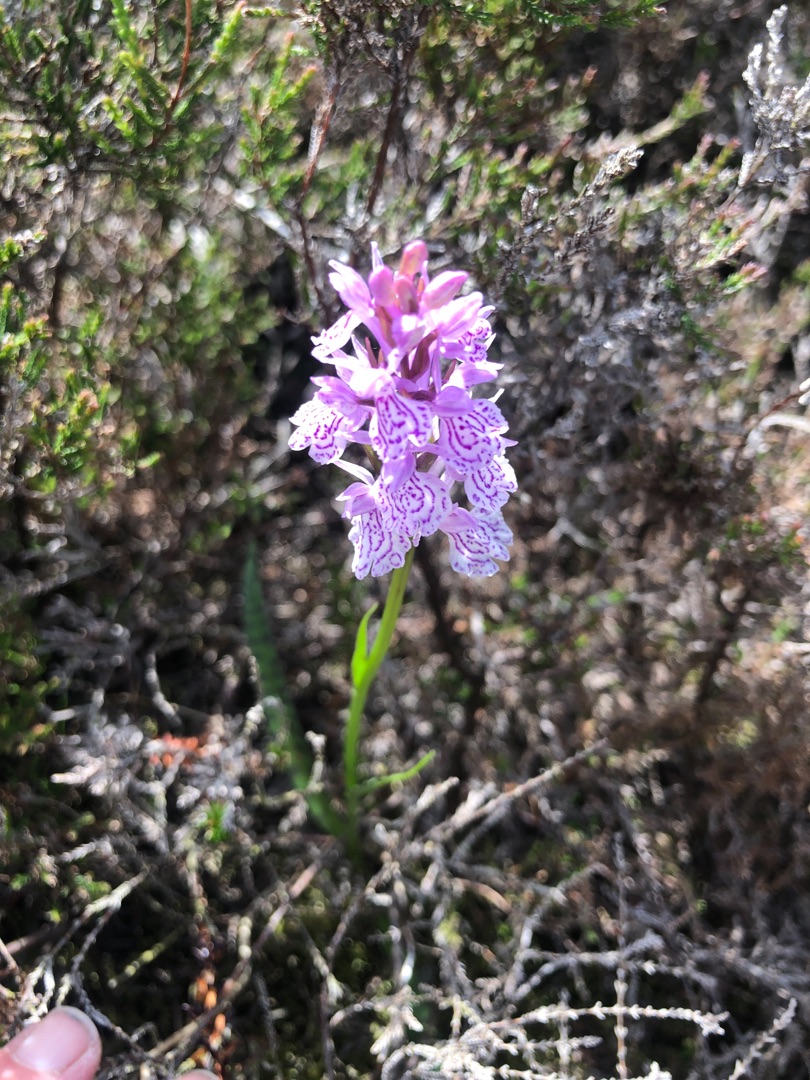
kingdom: Plantae
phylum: Tracheophyta
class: Liliopsida
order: Asparagales
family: Orchidaceae
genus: Dactylorhiza
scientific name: Dactylorhiza maculata
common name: Plettet gøgeurt
